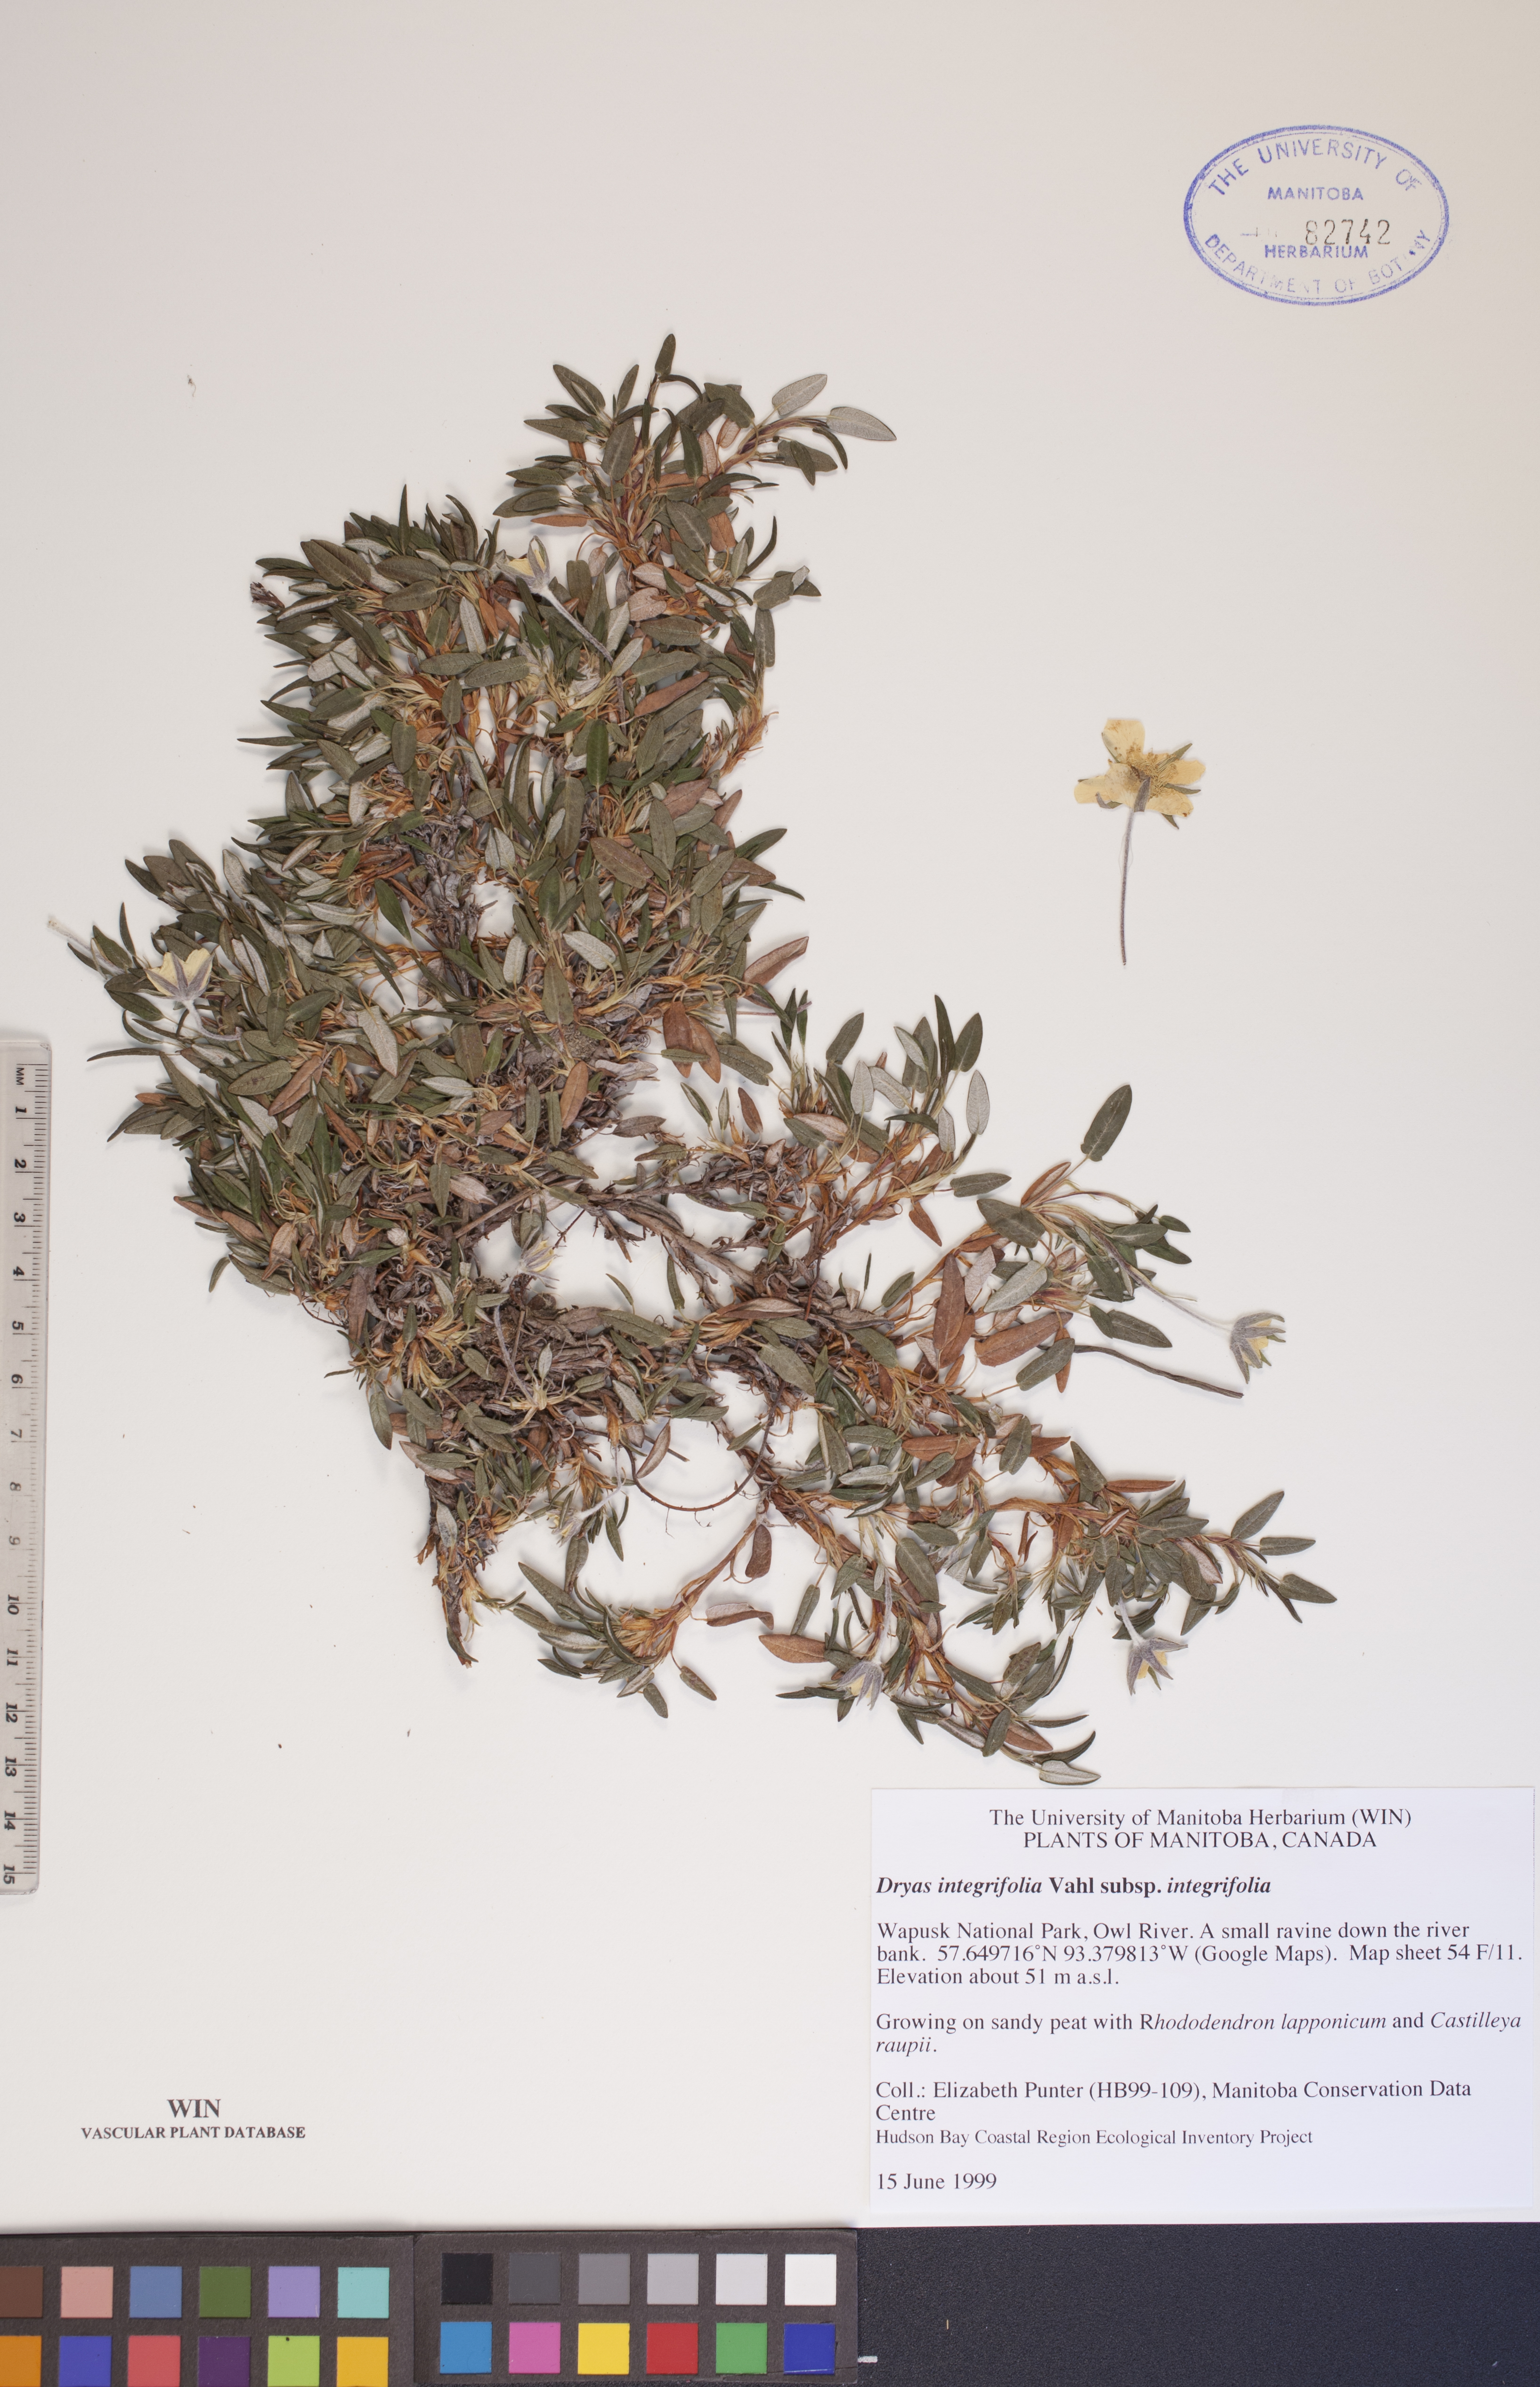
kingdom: Plantae
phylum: Tracheophyta
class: Magnoliopsida
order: Rosales
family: Rosaceae
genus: Dryas
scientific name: Dryas integrifolia
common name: Entire-leaved mountain avens
